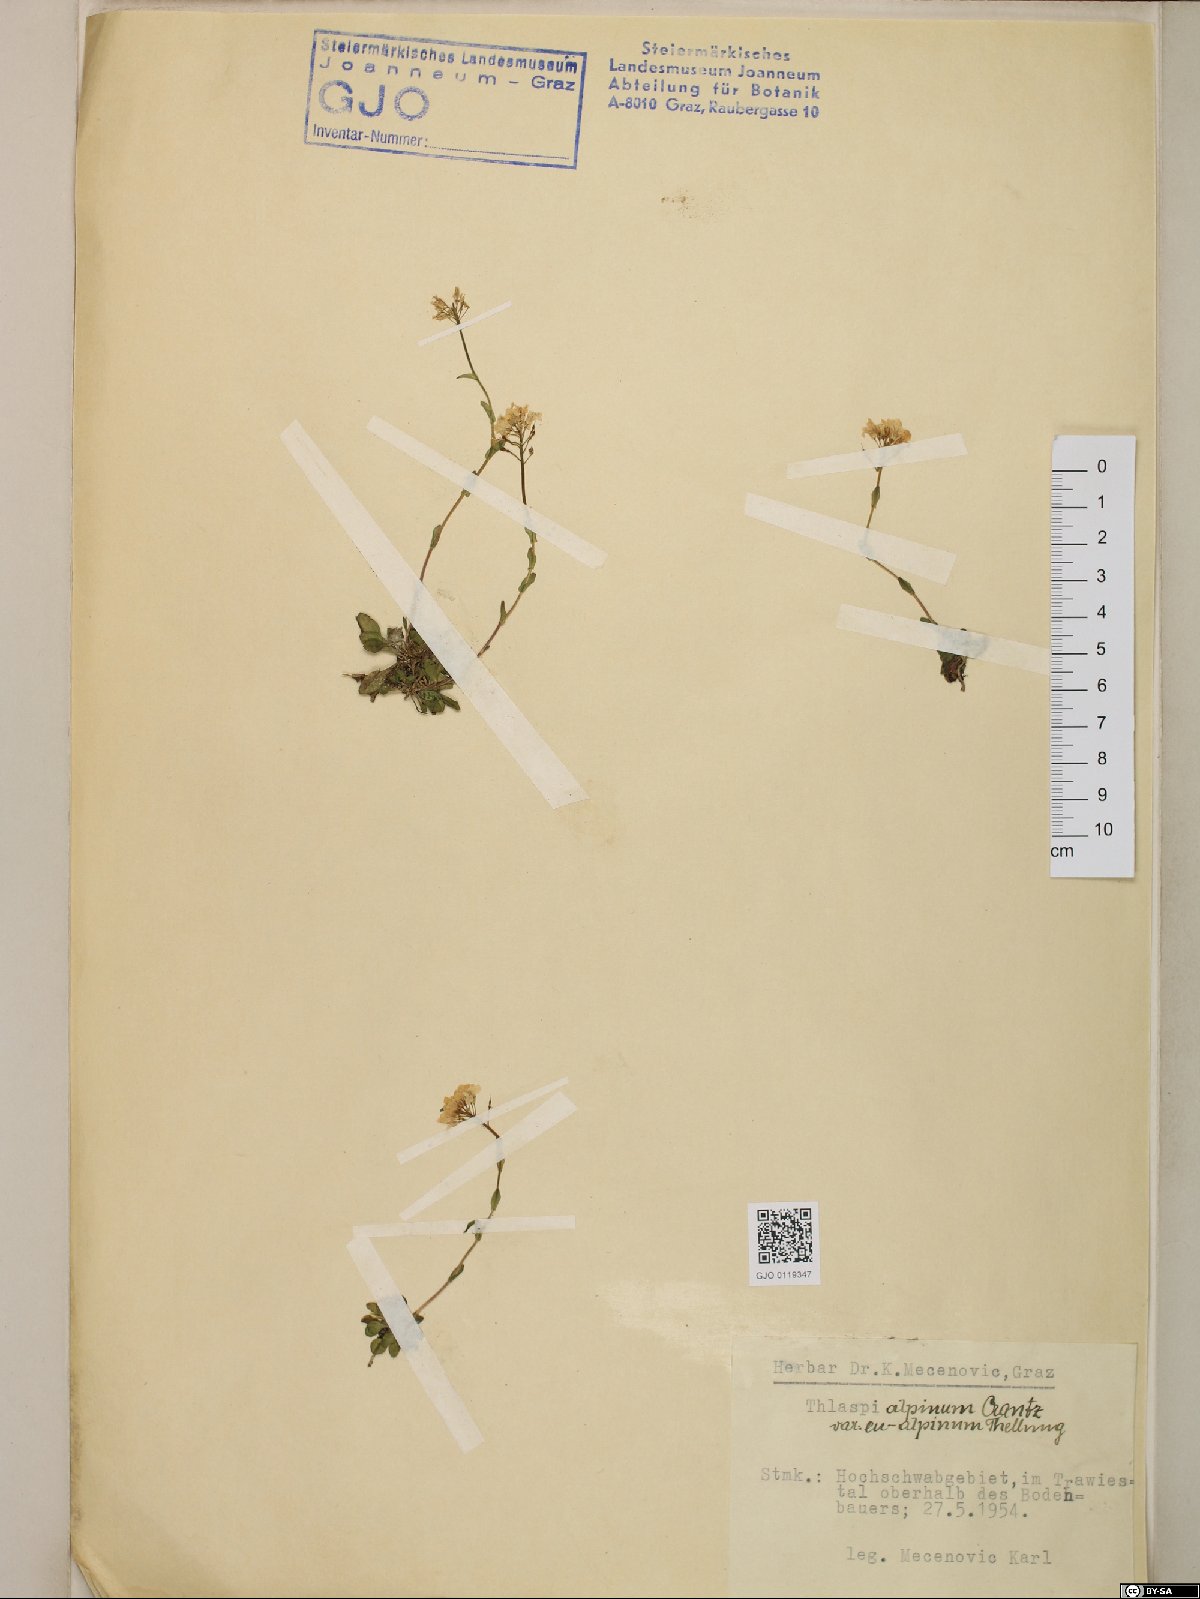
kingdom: Plantae
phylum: Tracheophyta
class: Magnoliopsida
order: Brassicales
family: Brassicaceae
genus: Noccaea
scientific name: Noccaea alpestris
